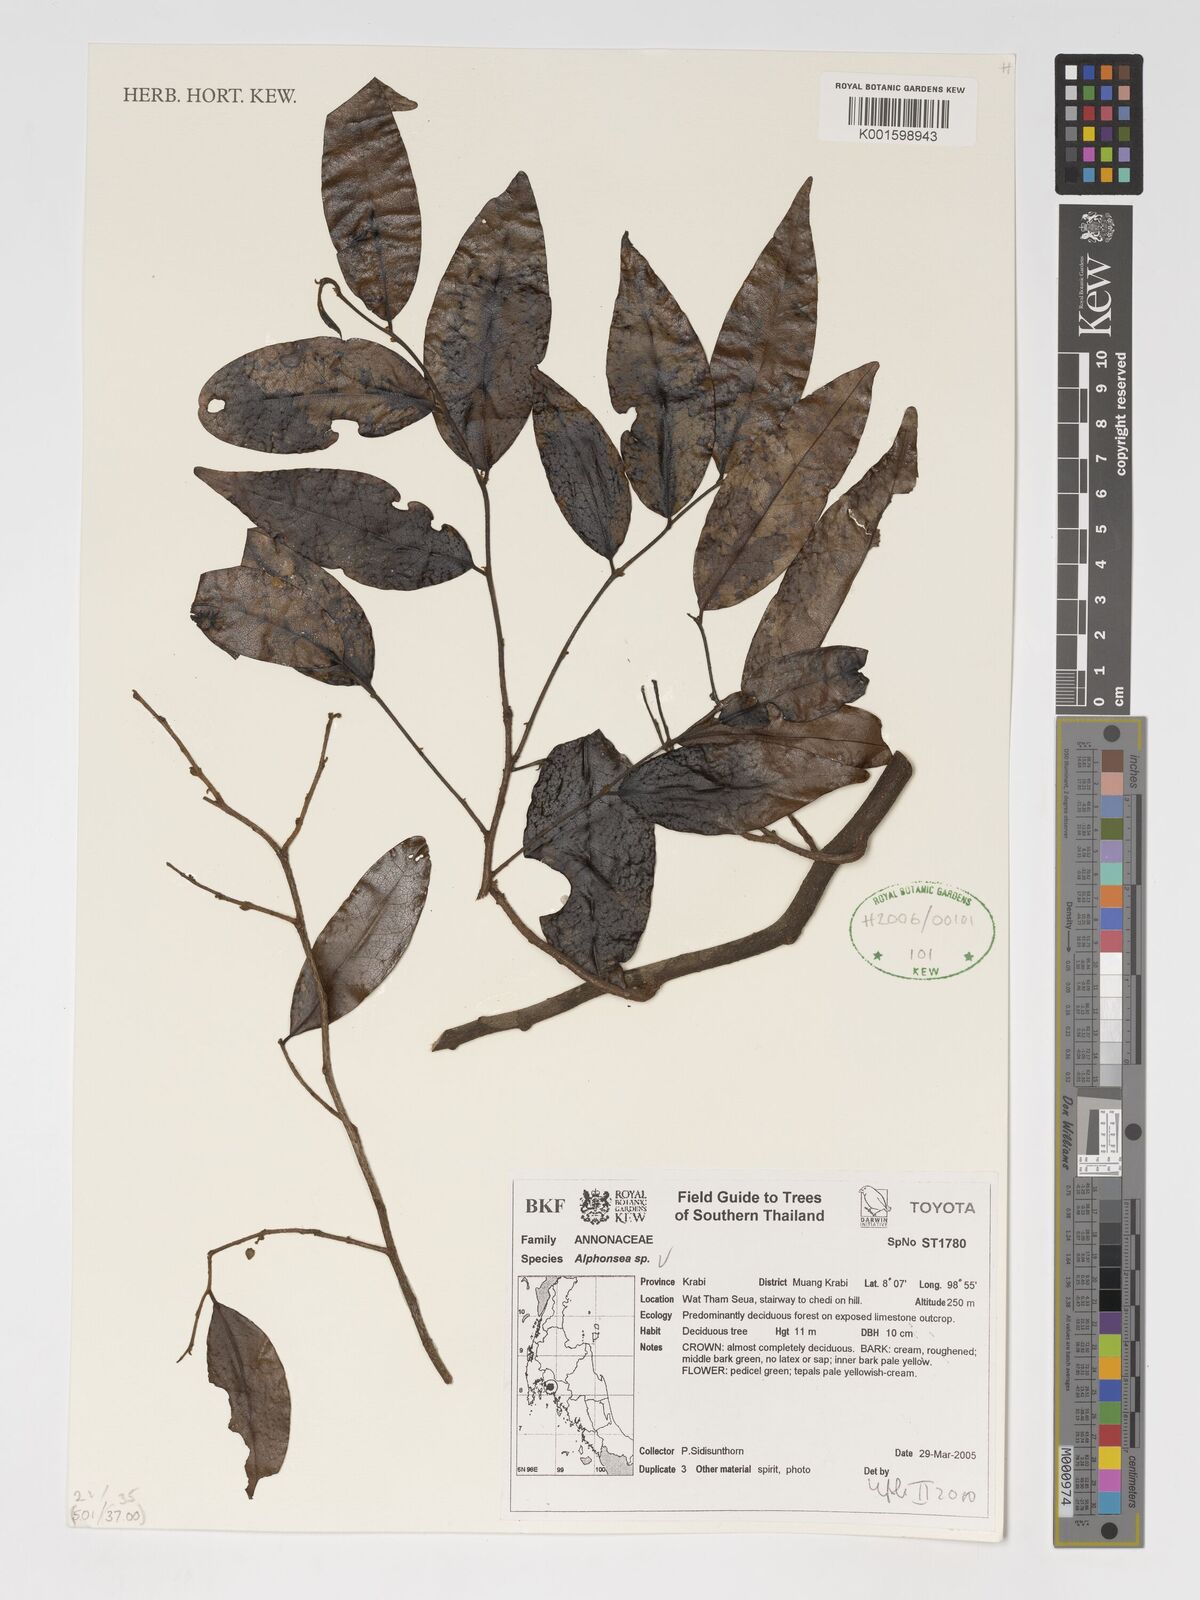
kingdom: Plantae
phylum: Tracheophyta
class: Magnoliopsida
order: Magnoliales
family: Annonaceae
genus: Alphonsea
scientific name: Alphonsea
